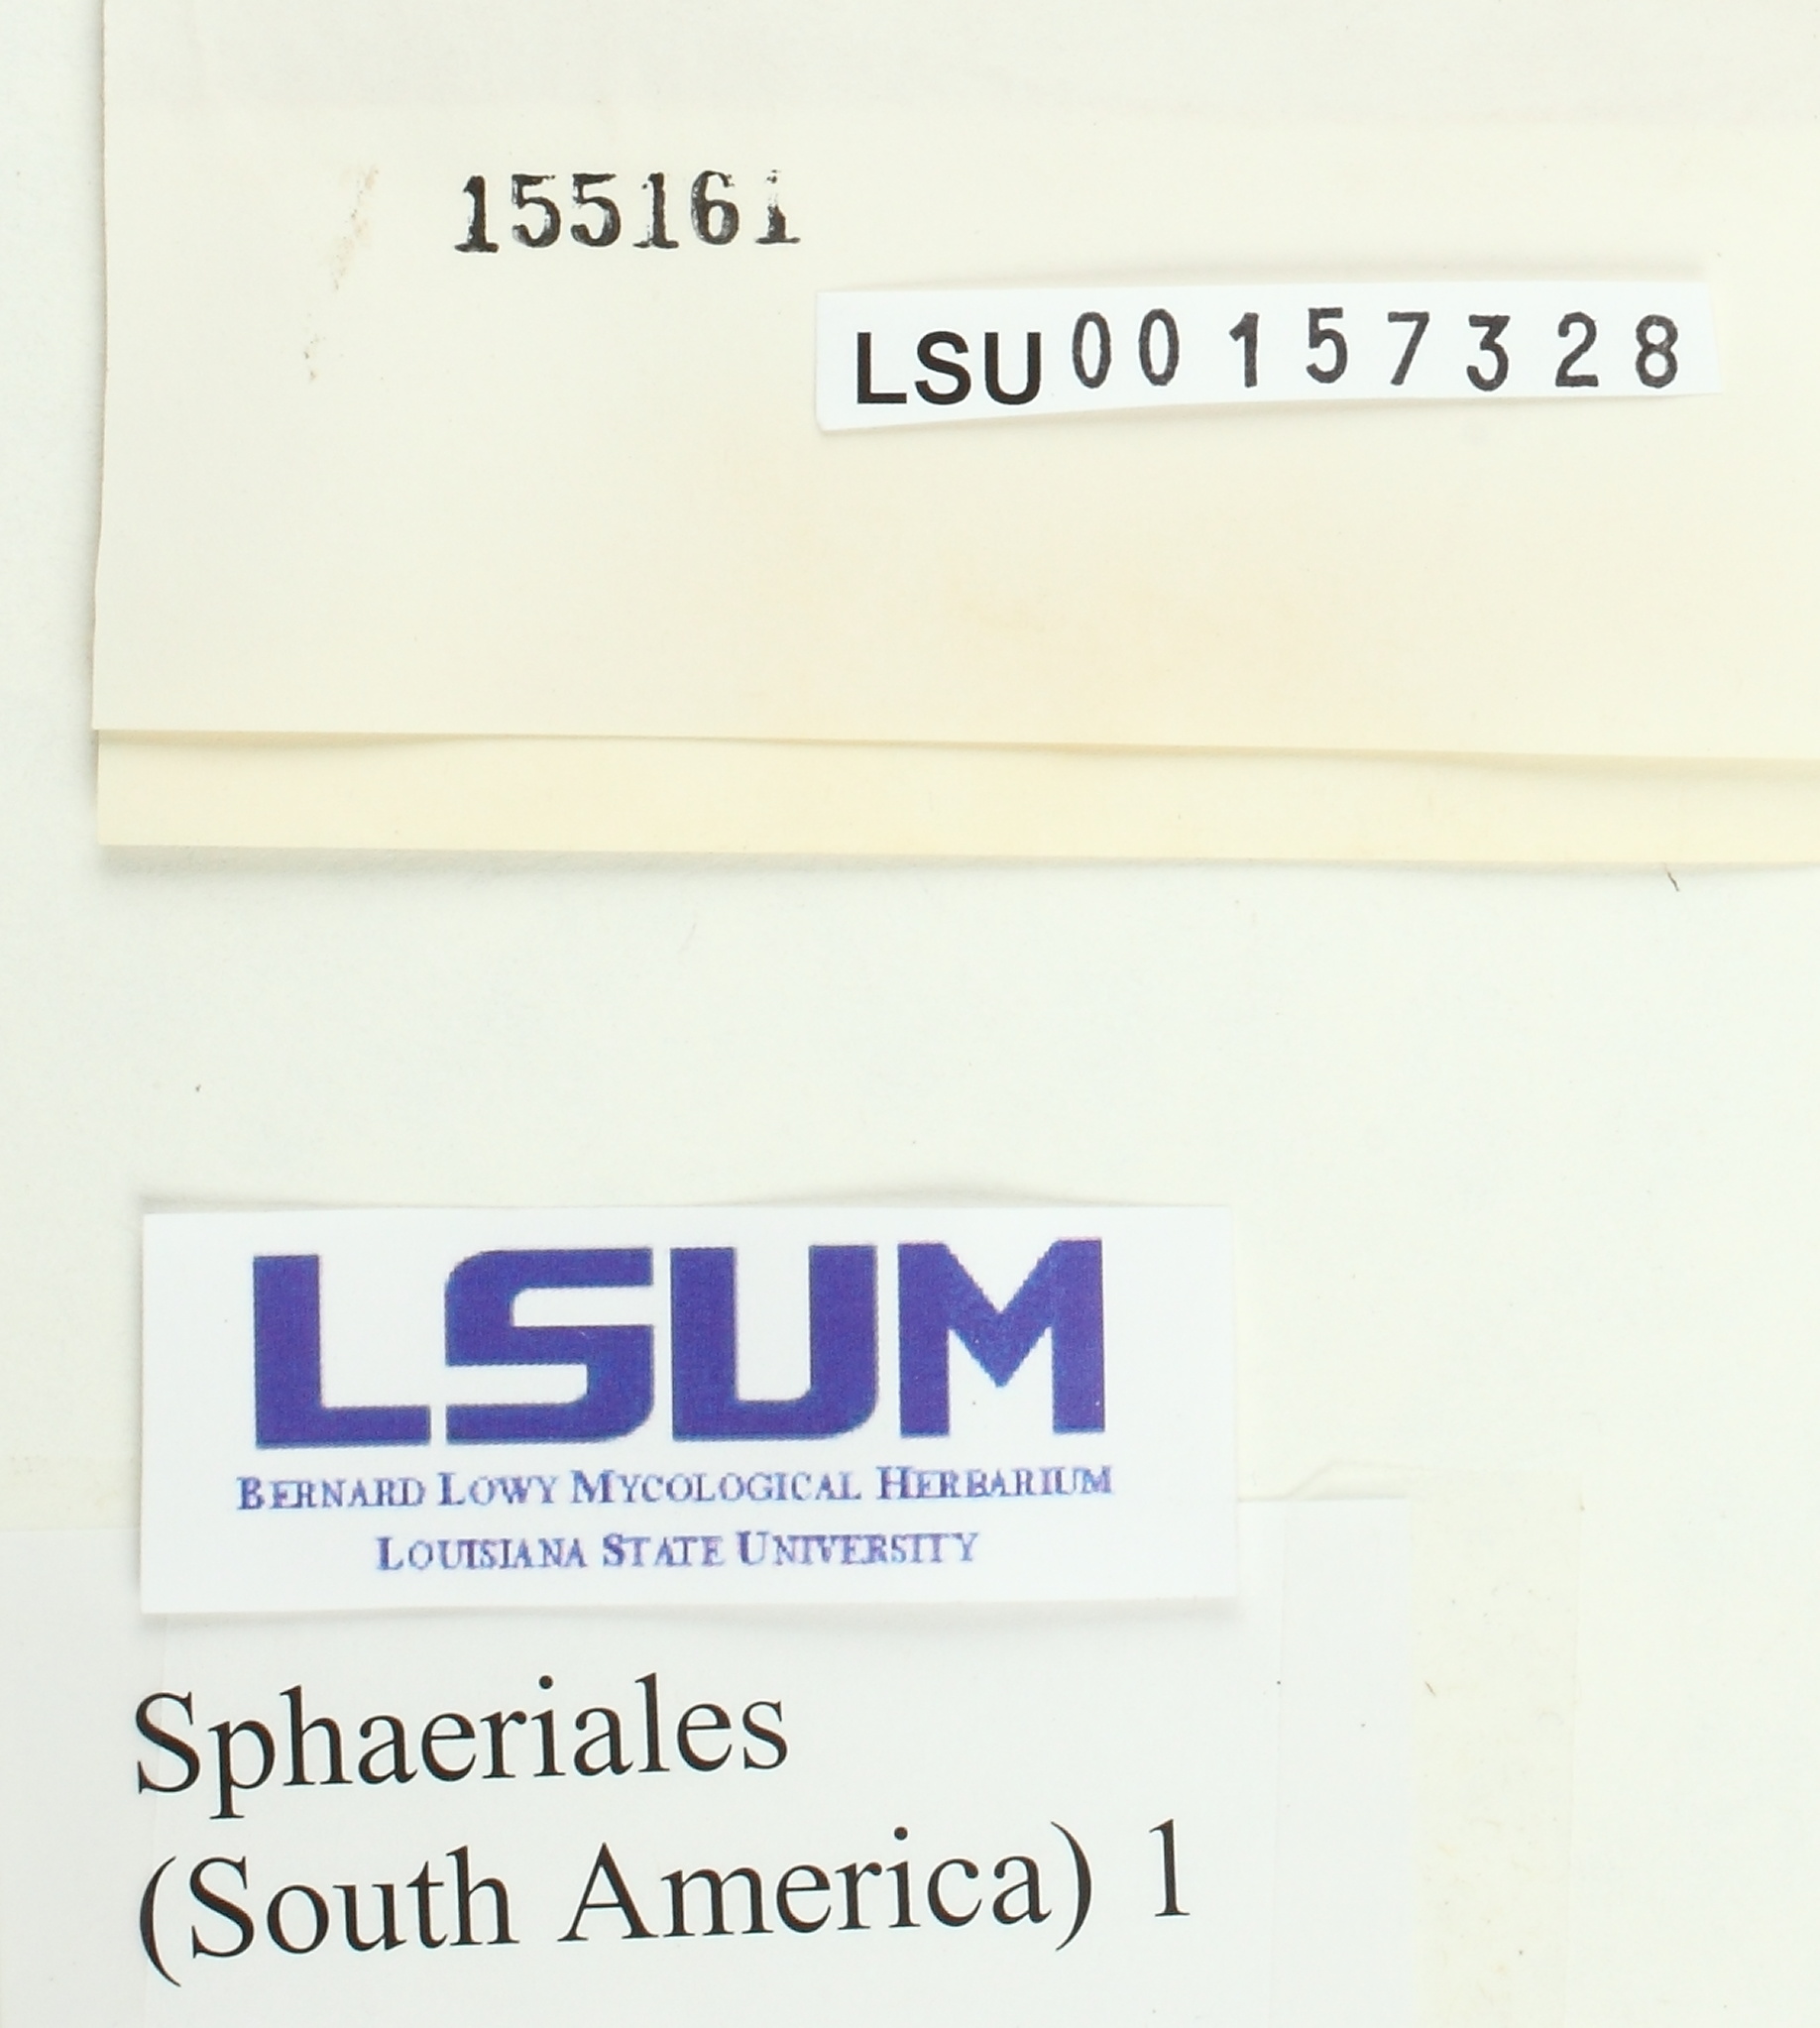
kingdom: Fungi
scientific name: Fungi
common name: Fungi
